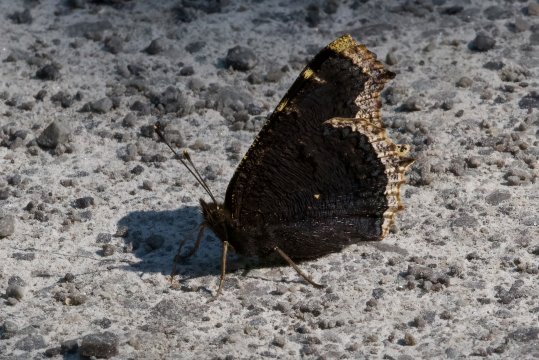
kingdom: Animalia
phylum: Arthropoda
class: Insecta
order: Lepidoptera
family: Nymphalidae
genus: Nymphalis
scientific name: Nymphalis antiopa
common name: Mourning Cloak
